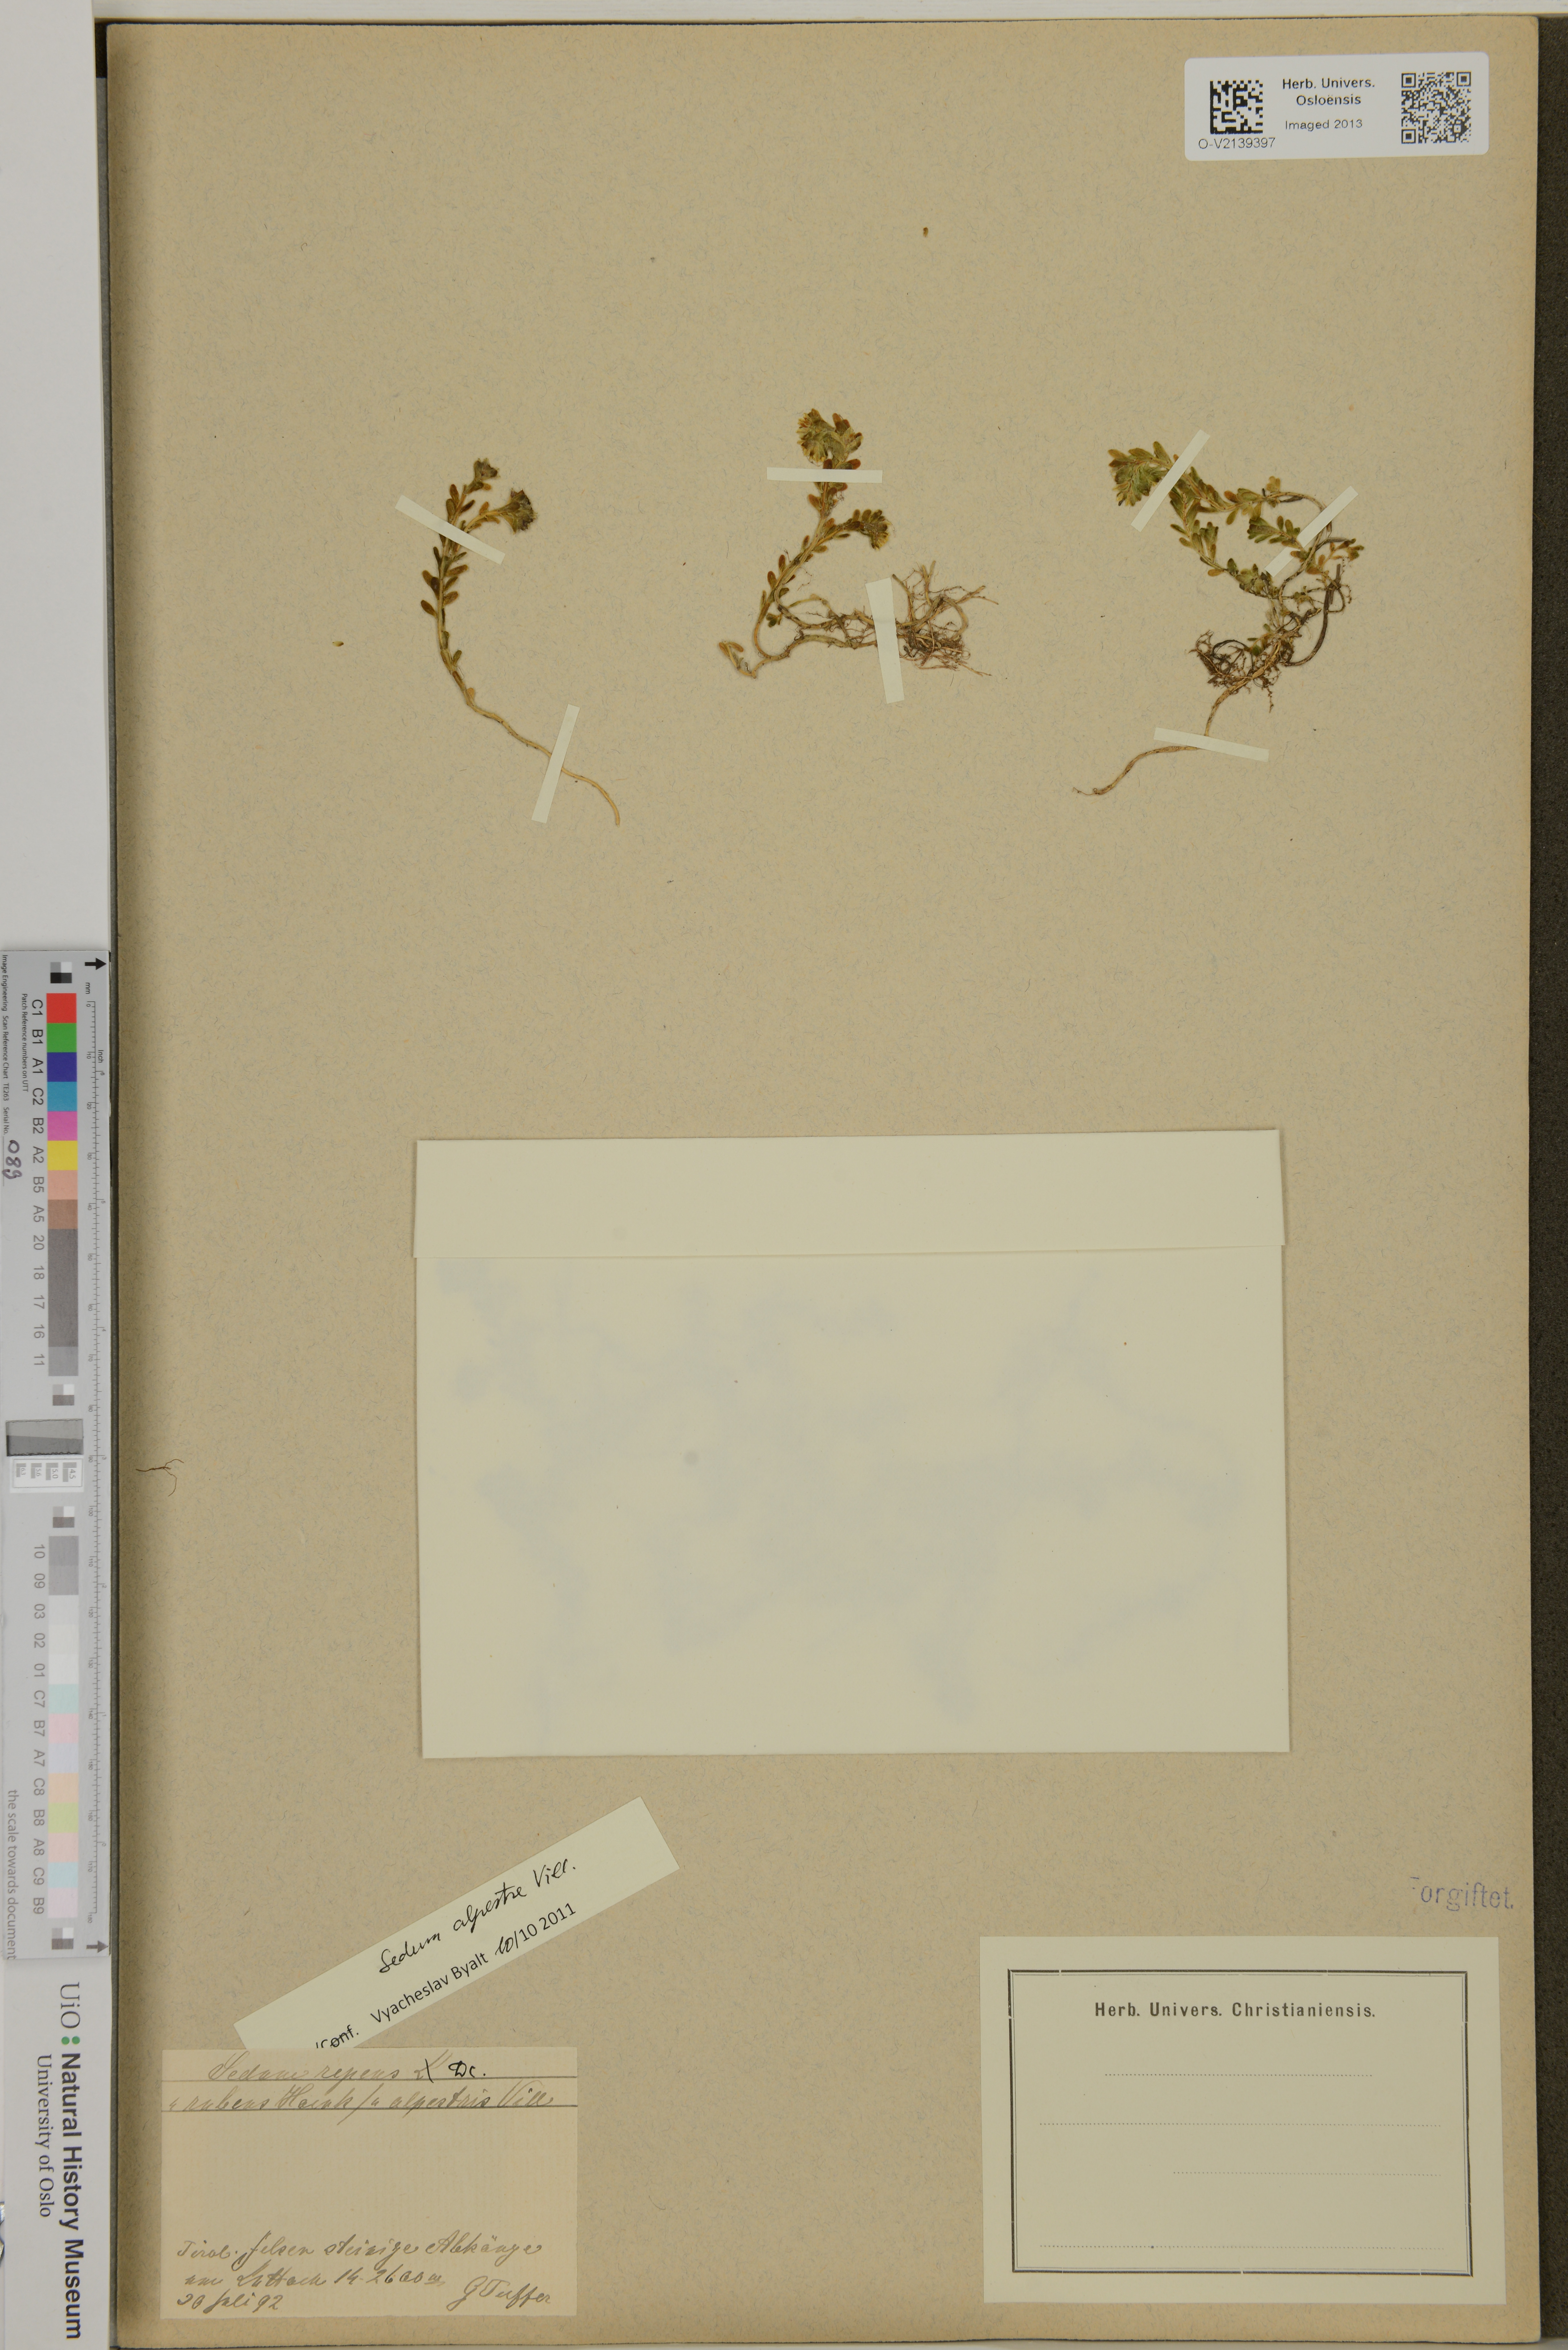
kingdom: Plantae
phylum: Tracheophyta
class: Magnoliopsida
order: Saxifragales
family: Crassulaceae
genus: Sedum
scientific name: Sedum alpestre
